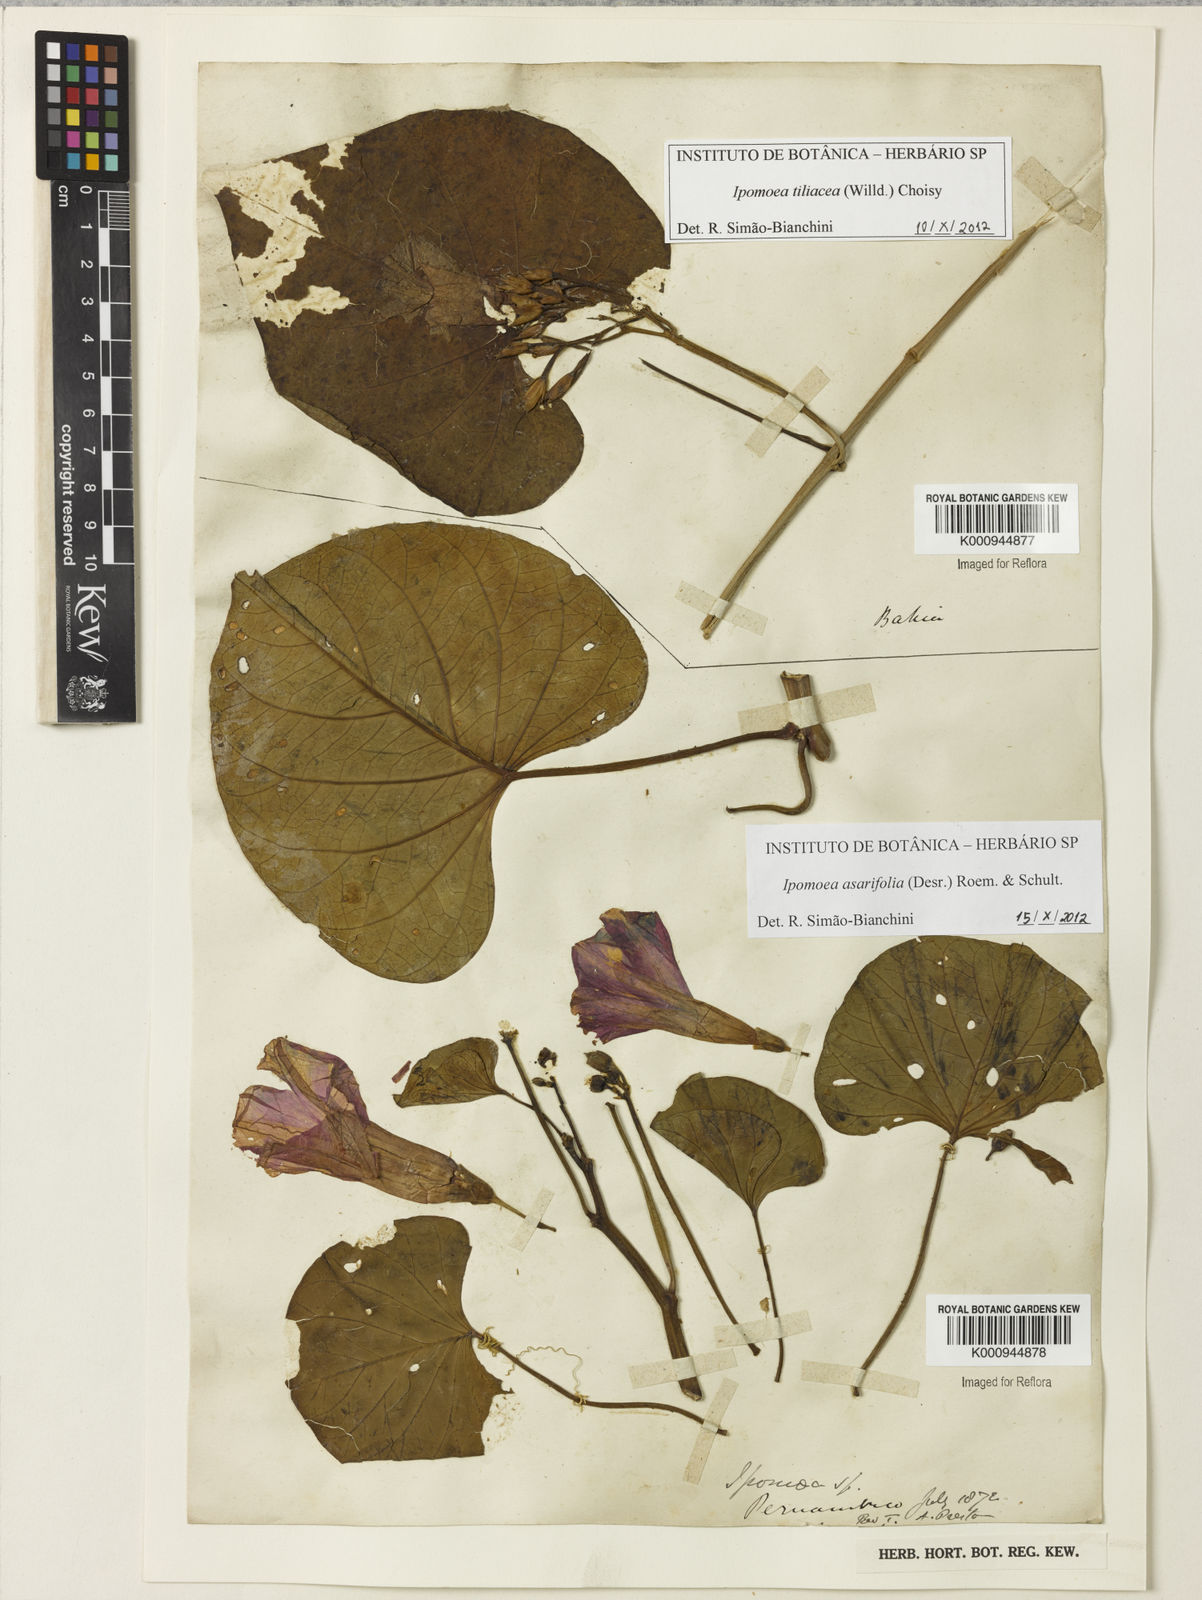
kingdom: Plantae
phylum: Tracheophyta
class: Magnoliopsida
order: Solanales
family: Convolvulaceae
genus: Ipomoea
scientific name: Ipomoea tiliacea
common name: Wild potato vine
